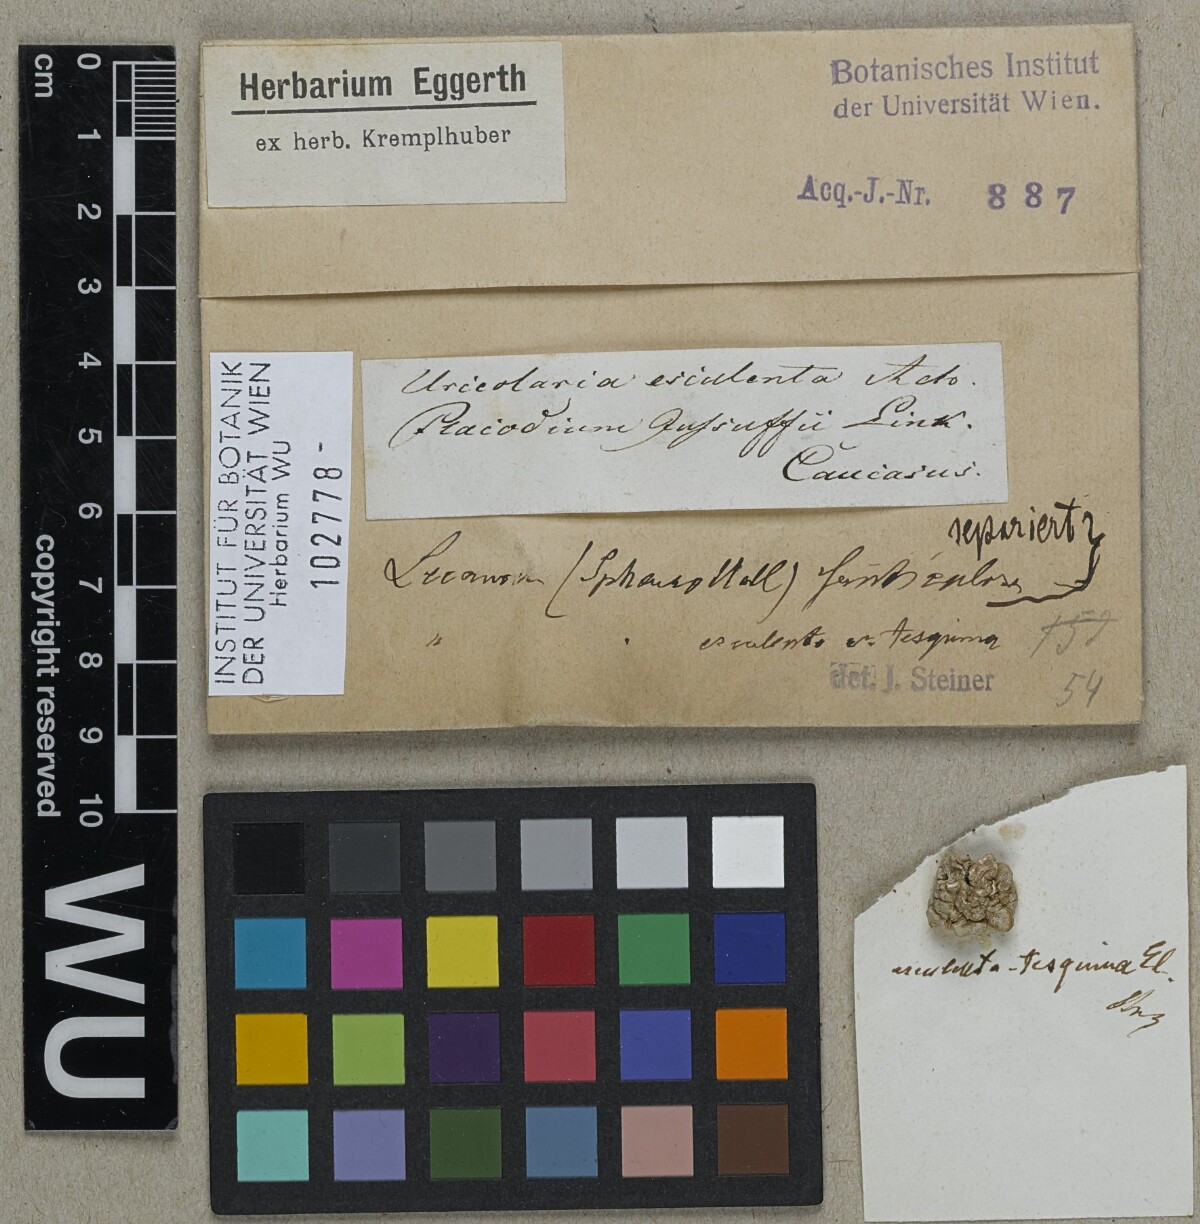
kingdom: Fungi
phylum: Ascomycota
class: Lecanoromycetes
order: Pertusariales
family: Megasporaceae
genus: Circinaria
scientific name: Circinaria esculenta
